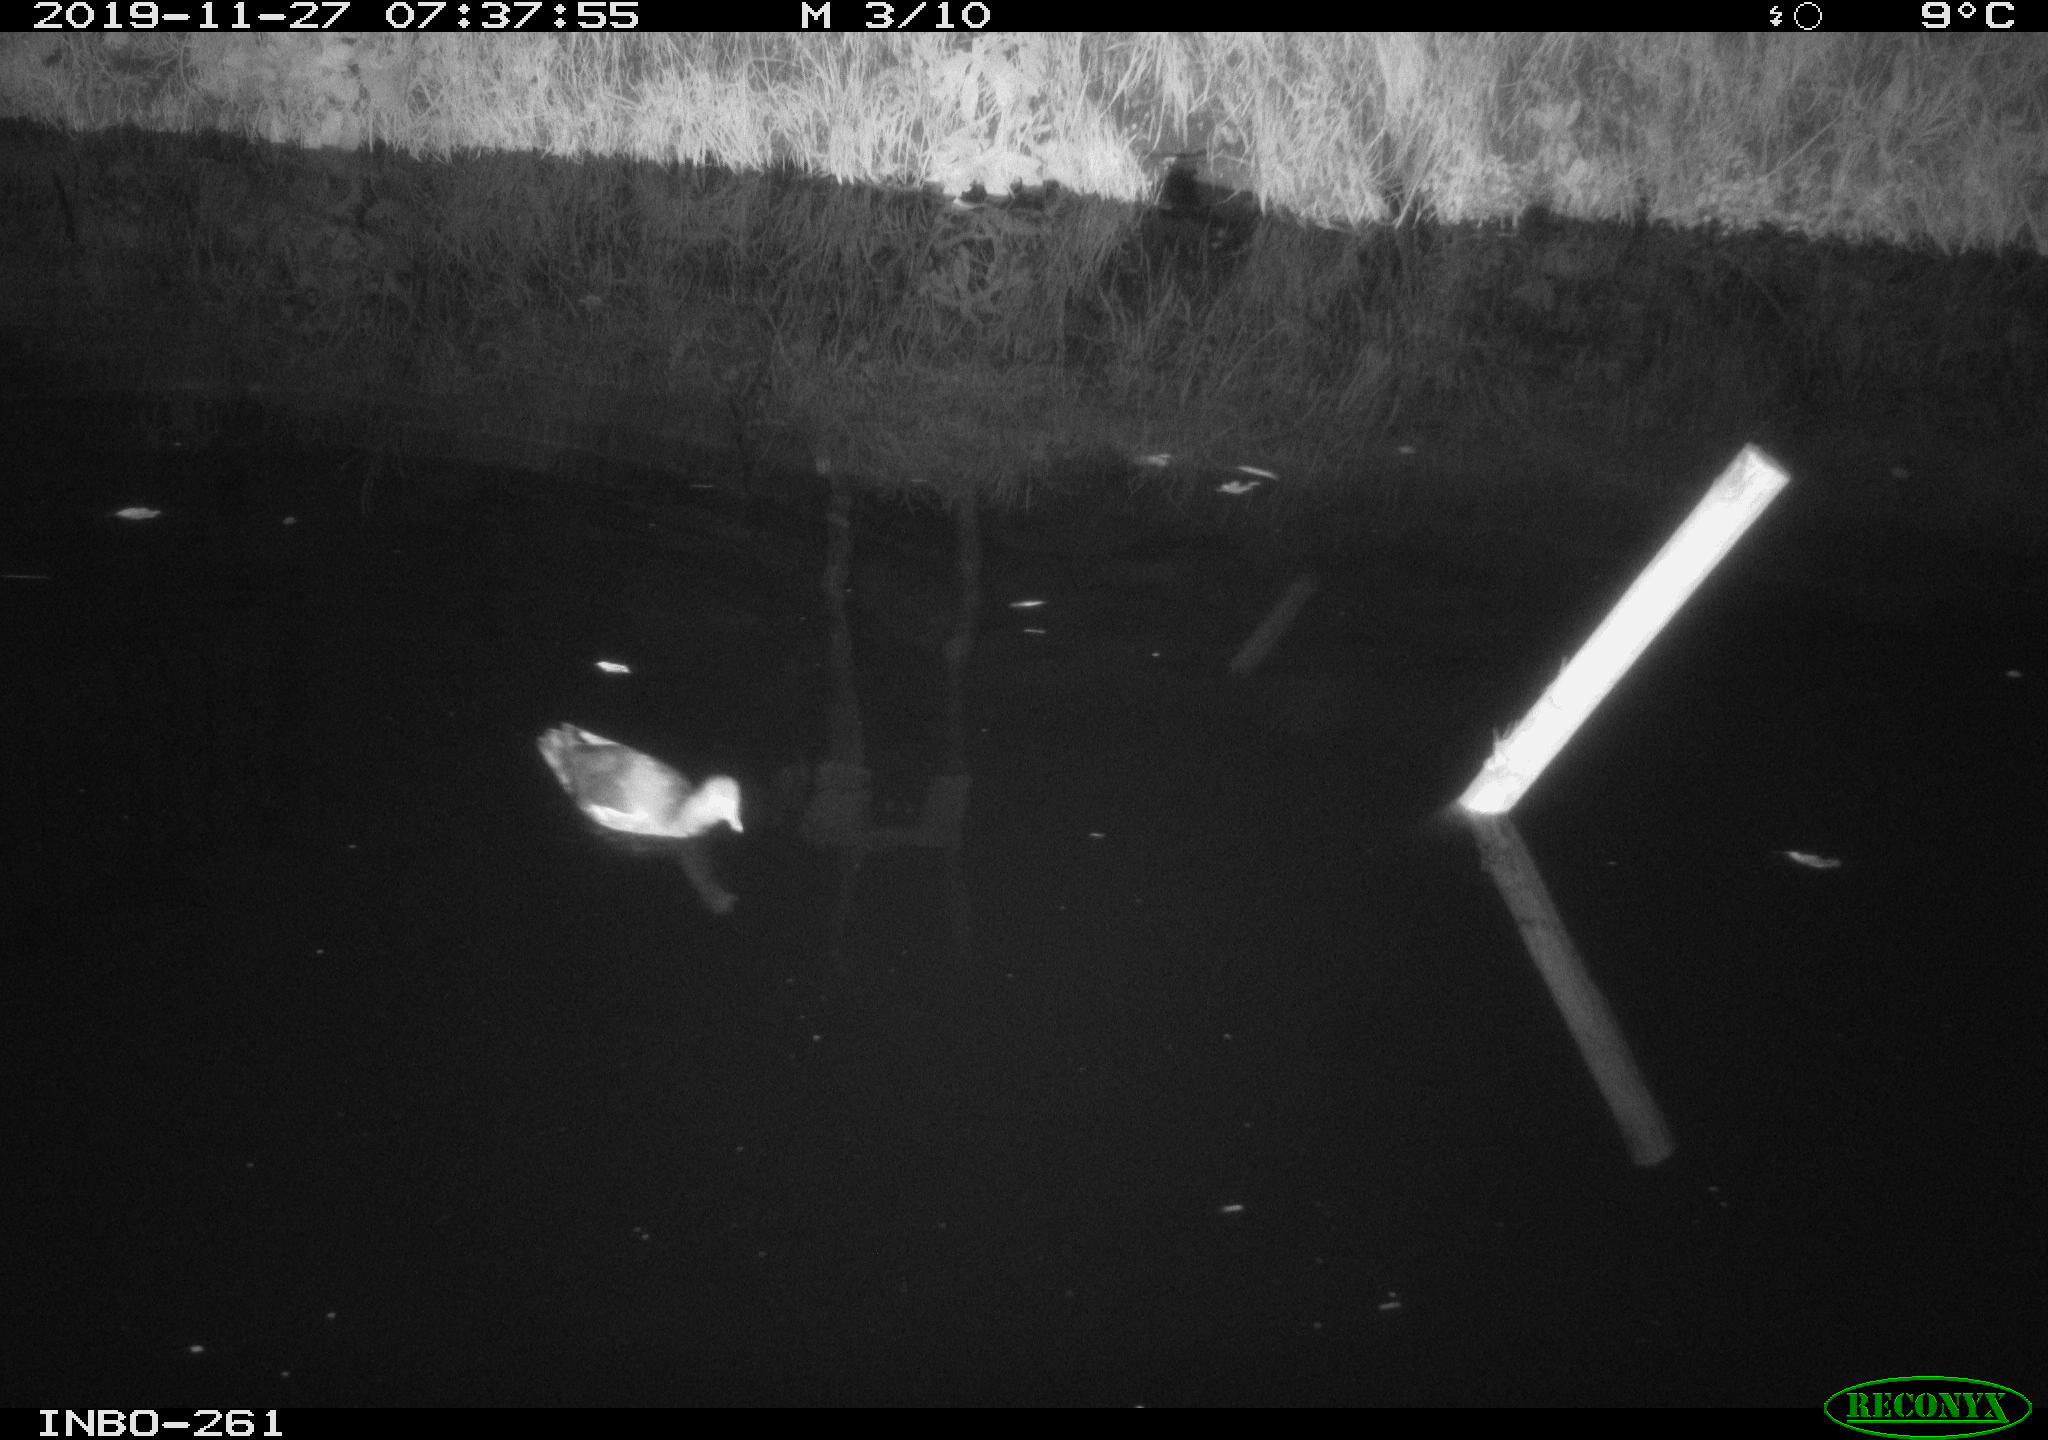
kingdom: Animalia
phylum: Chordata
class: Aves
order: Gruiformes
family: Rallidae
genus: Gallinula
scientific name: Gallinula chloropus
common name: Common moorhen
